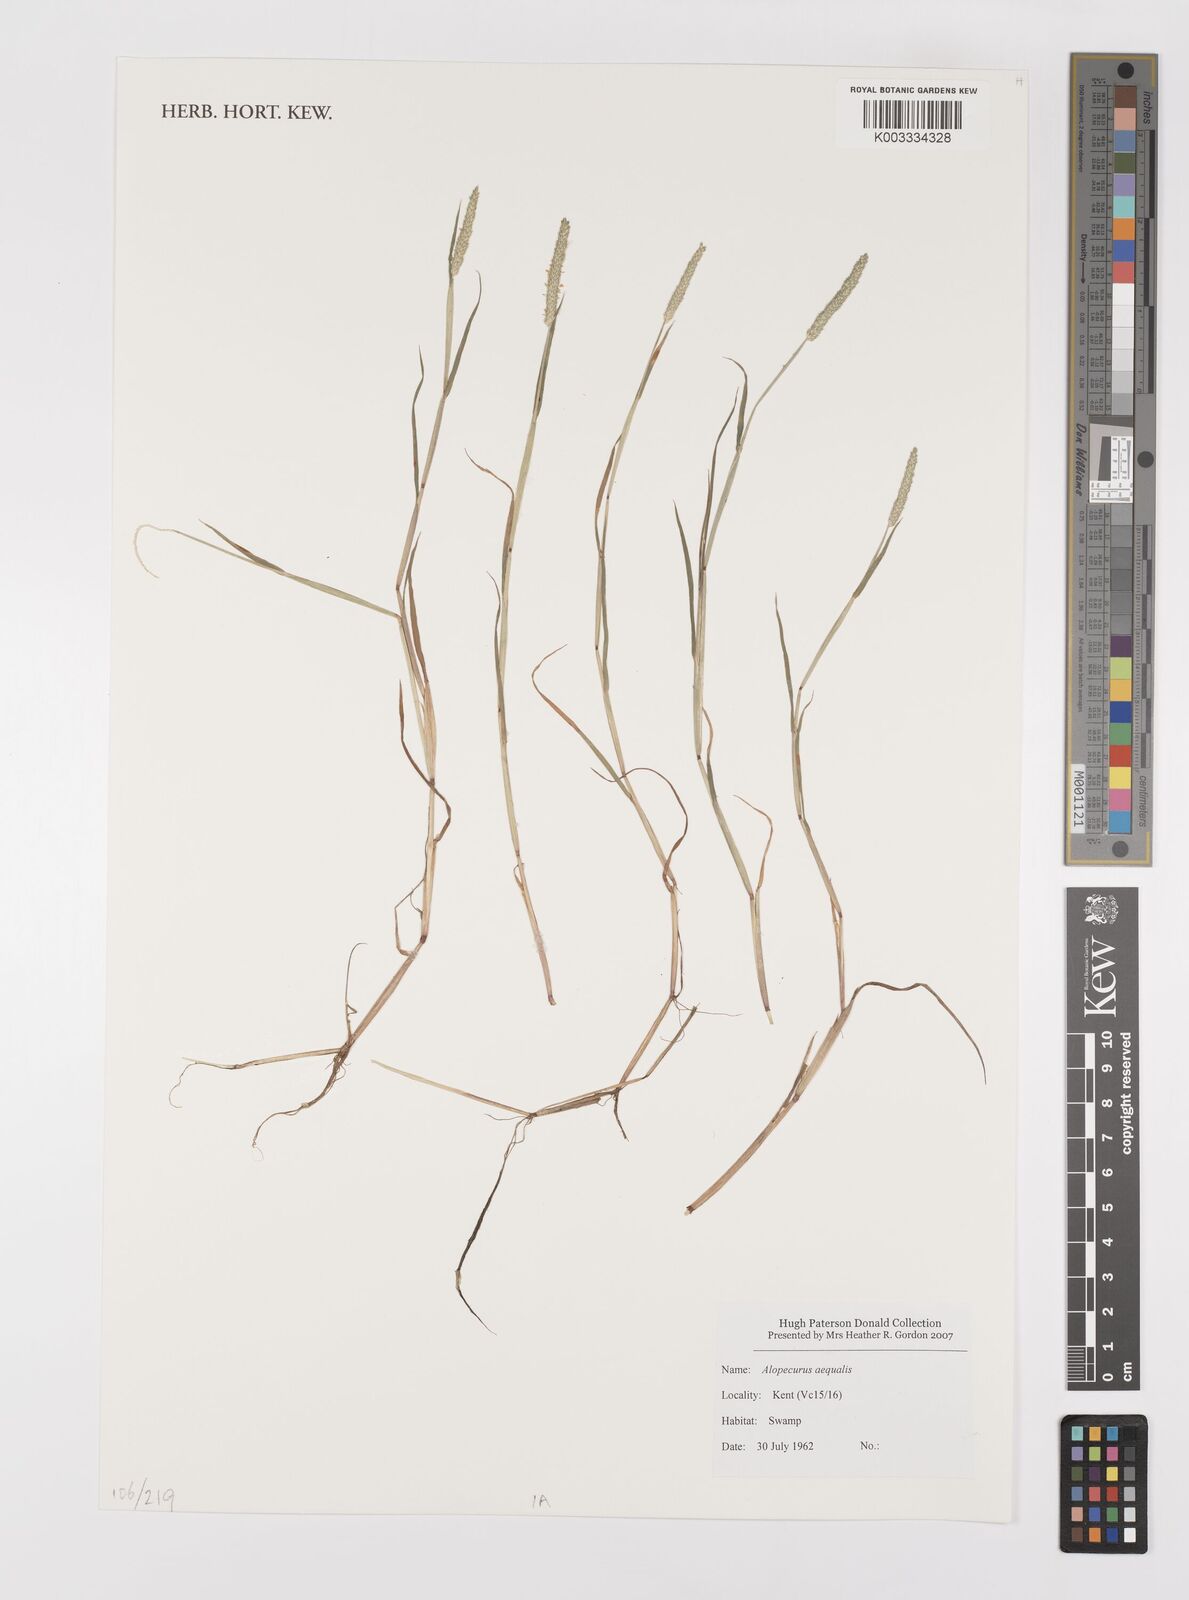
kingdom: Plantae
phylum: Tracheophyta
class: Liliopsida
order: Poales
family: Poaceae
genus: Alopecurus
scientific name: Alopecurus aequalis
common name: Orange foxtail
